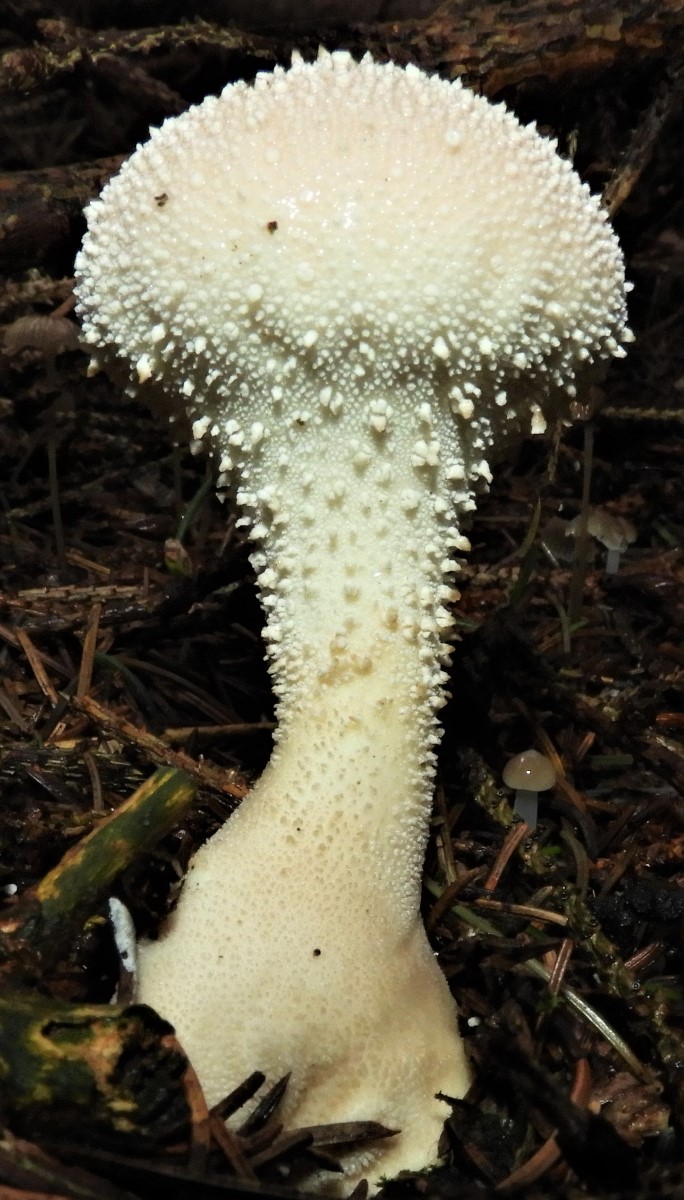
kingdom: Fungi
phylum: Basidiomycota
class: Agaricomycetes
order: Agaricales
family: Lycoperdaceae
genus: Lycoperdon
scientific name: Lycoperdon perlatum
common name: krystal-støvbold
